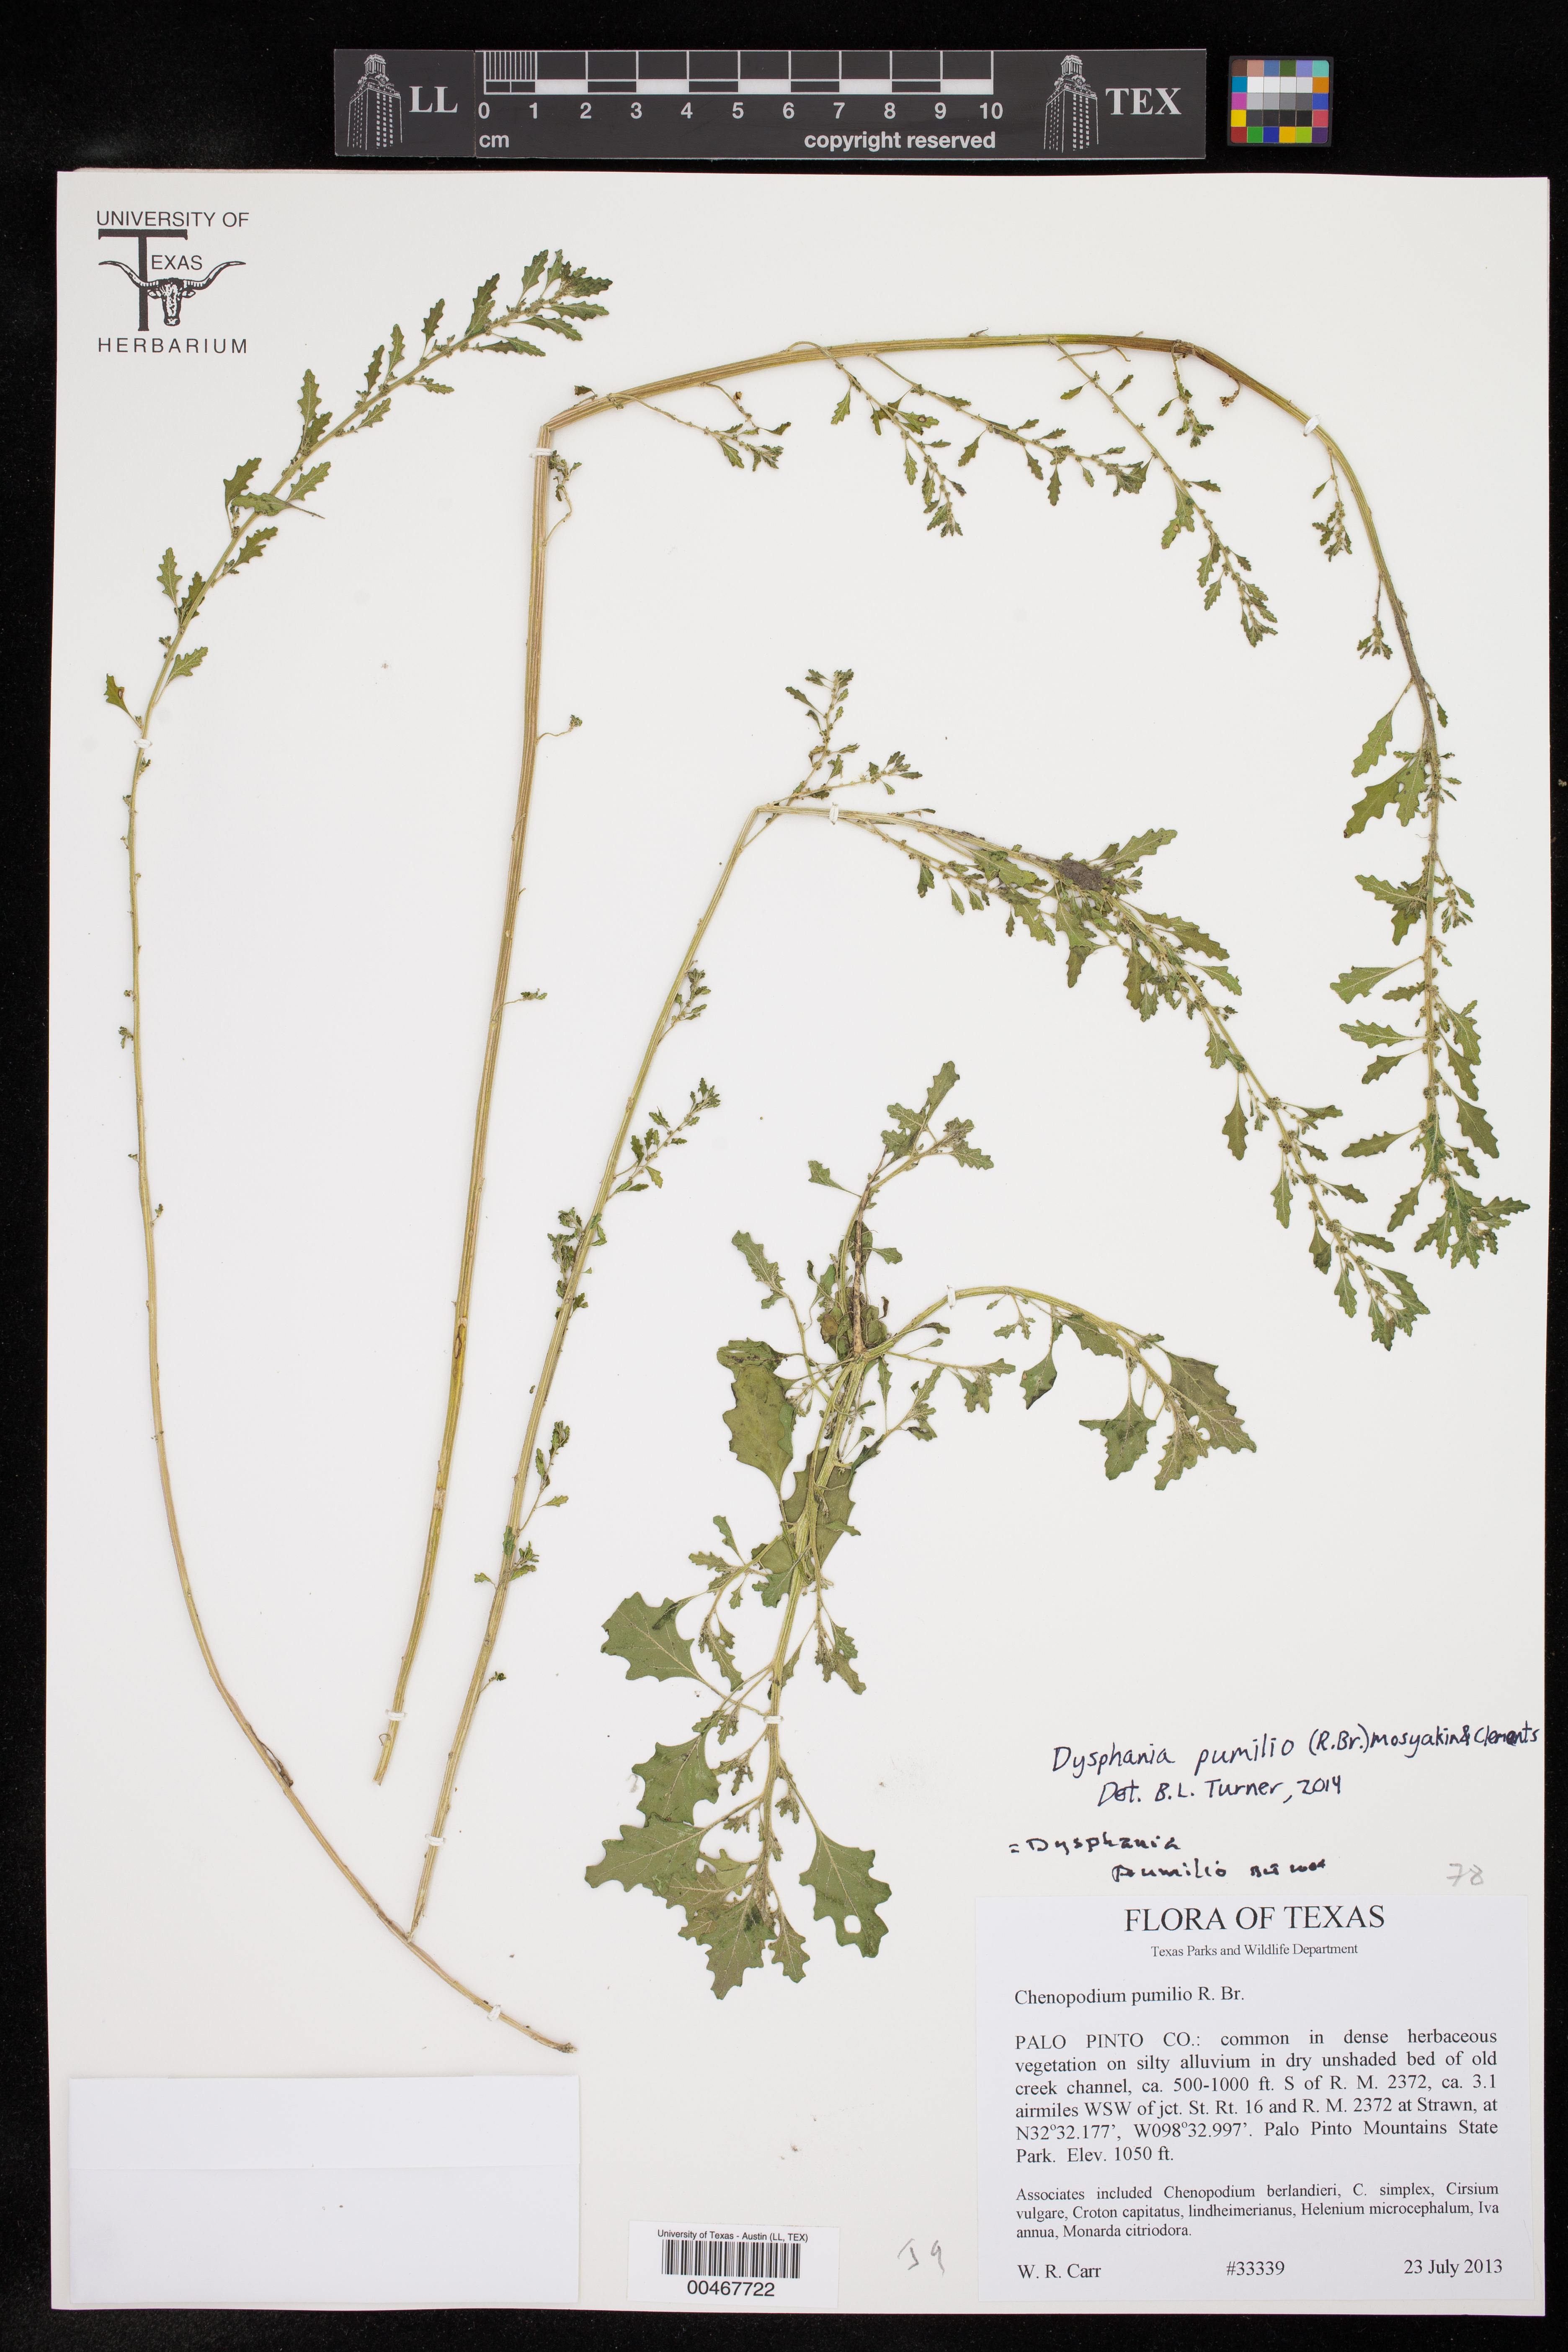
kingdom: Plantae
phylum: Tracheophyta
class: Magnoliopsida
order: Caryophyllales
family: Amaranthaceae
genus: Dysphania
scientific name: Dysphania pumilio
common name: Clammy goosefoot
